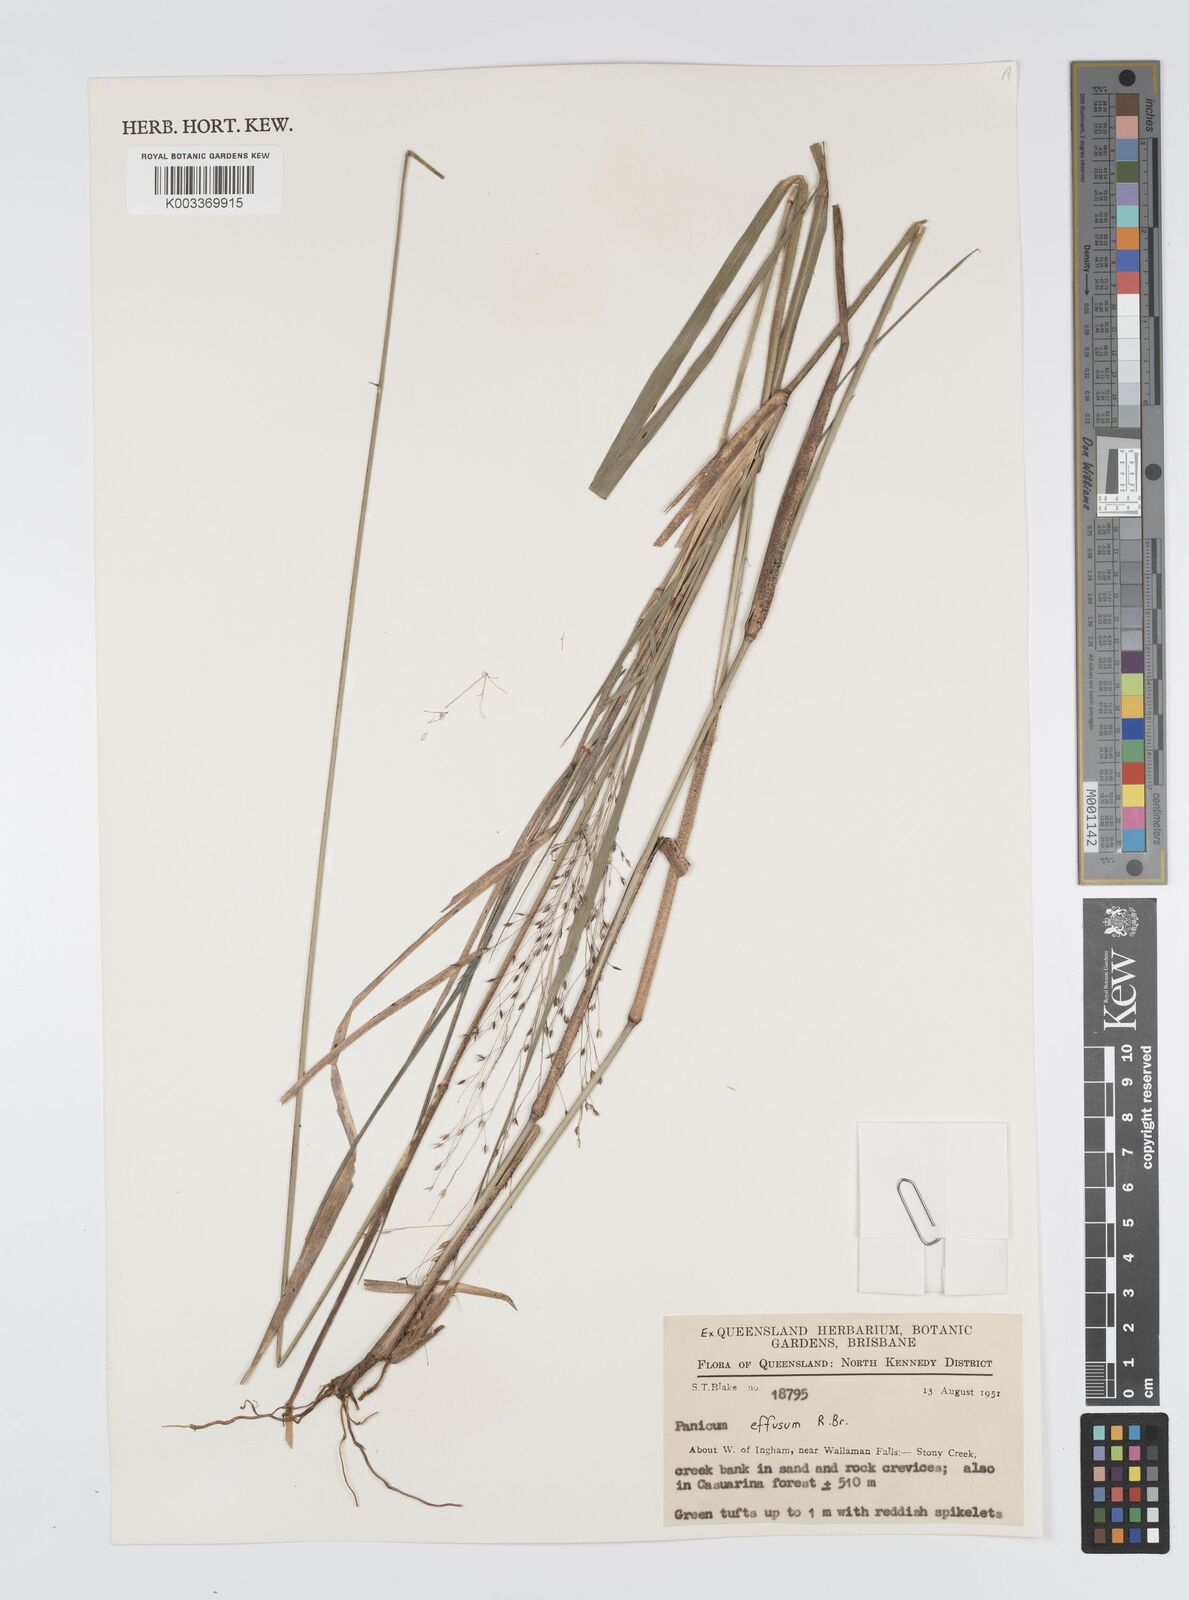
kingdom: Plantae
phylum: Tracheophyta
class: Liliopsida
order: Poales
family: Poaceae
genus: Panicum
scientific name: Panicum effusum
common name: Hairy panic grass
